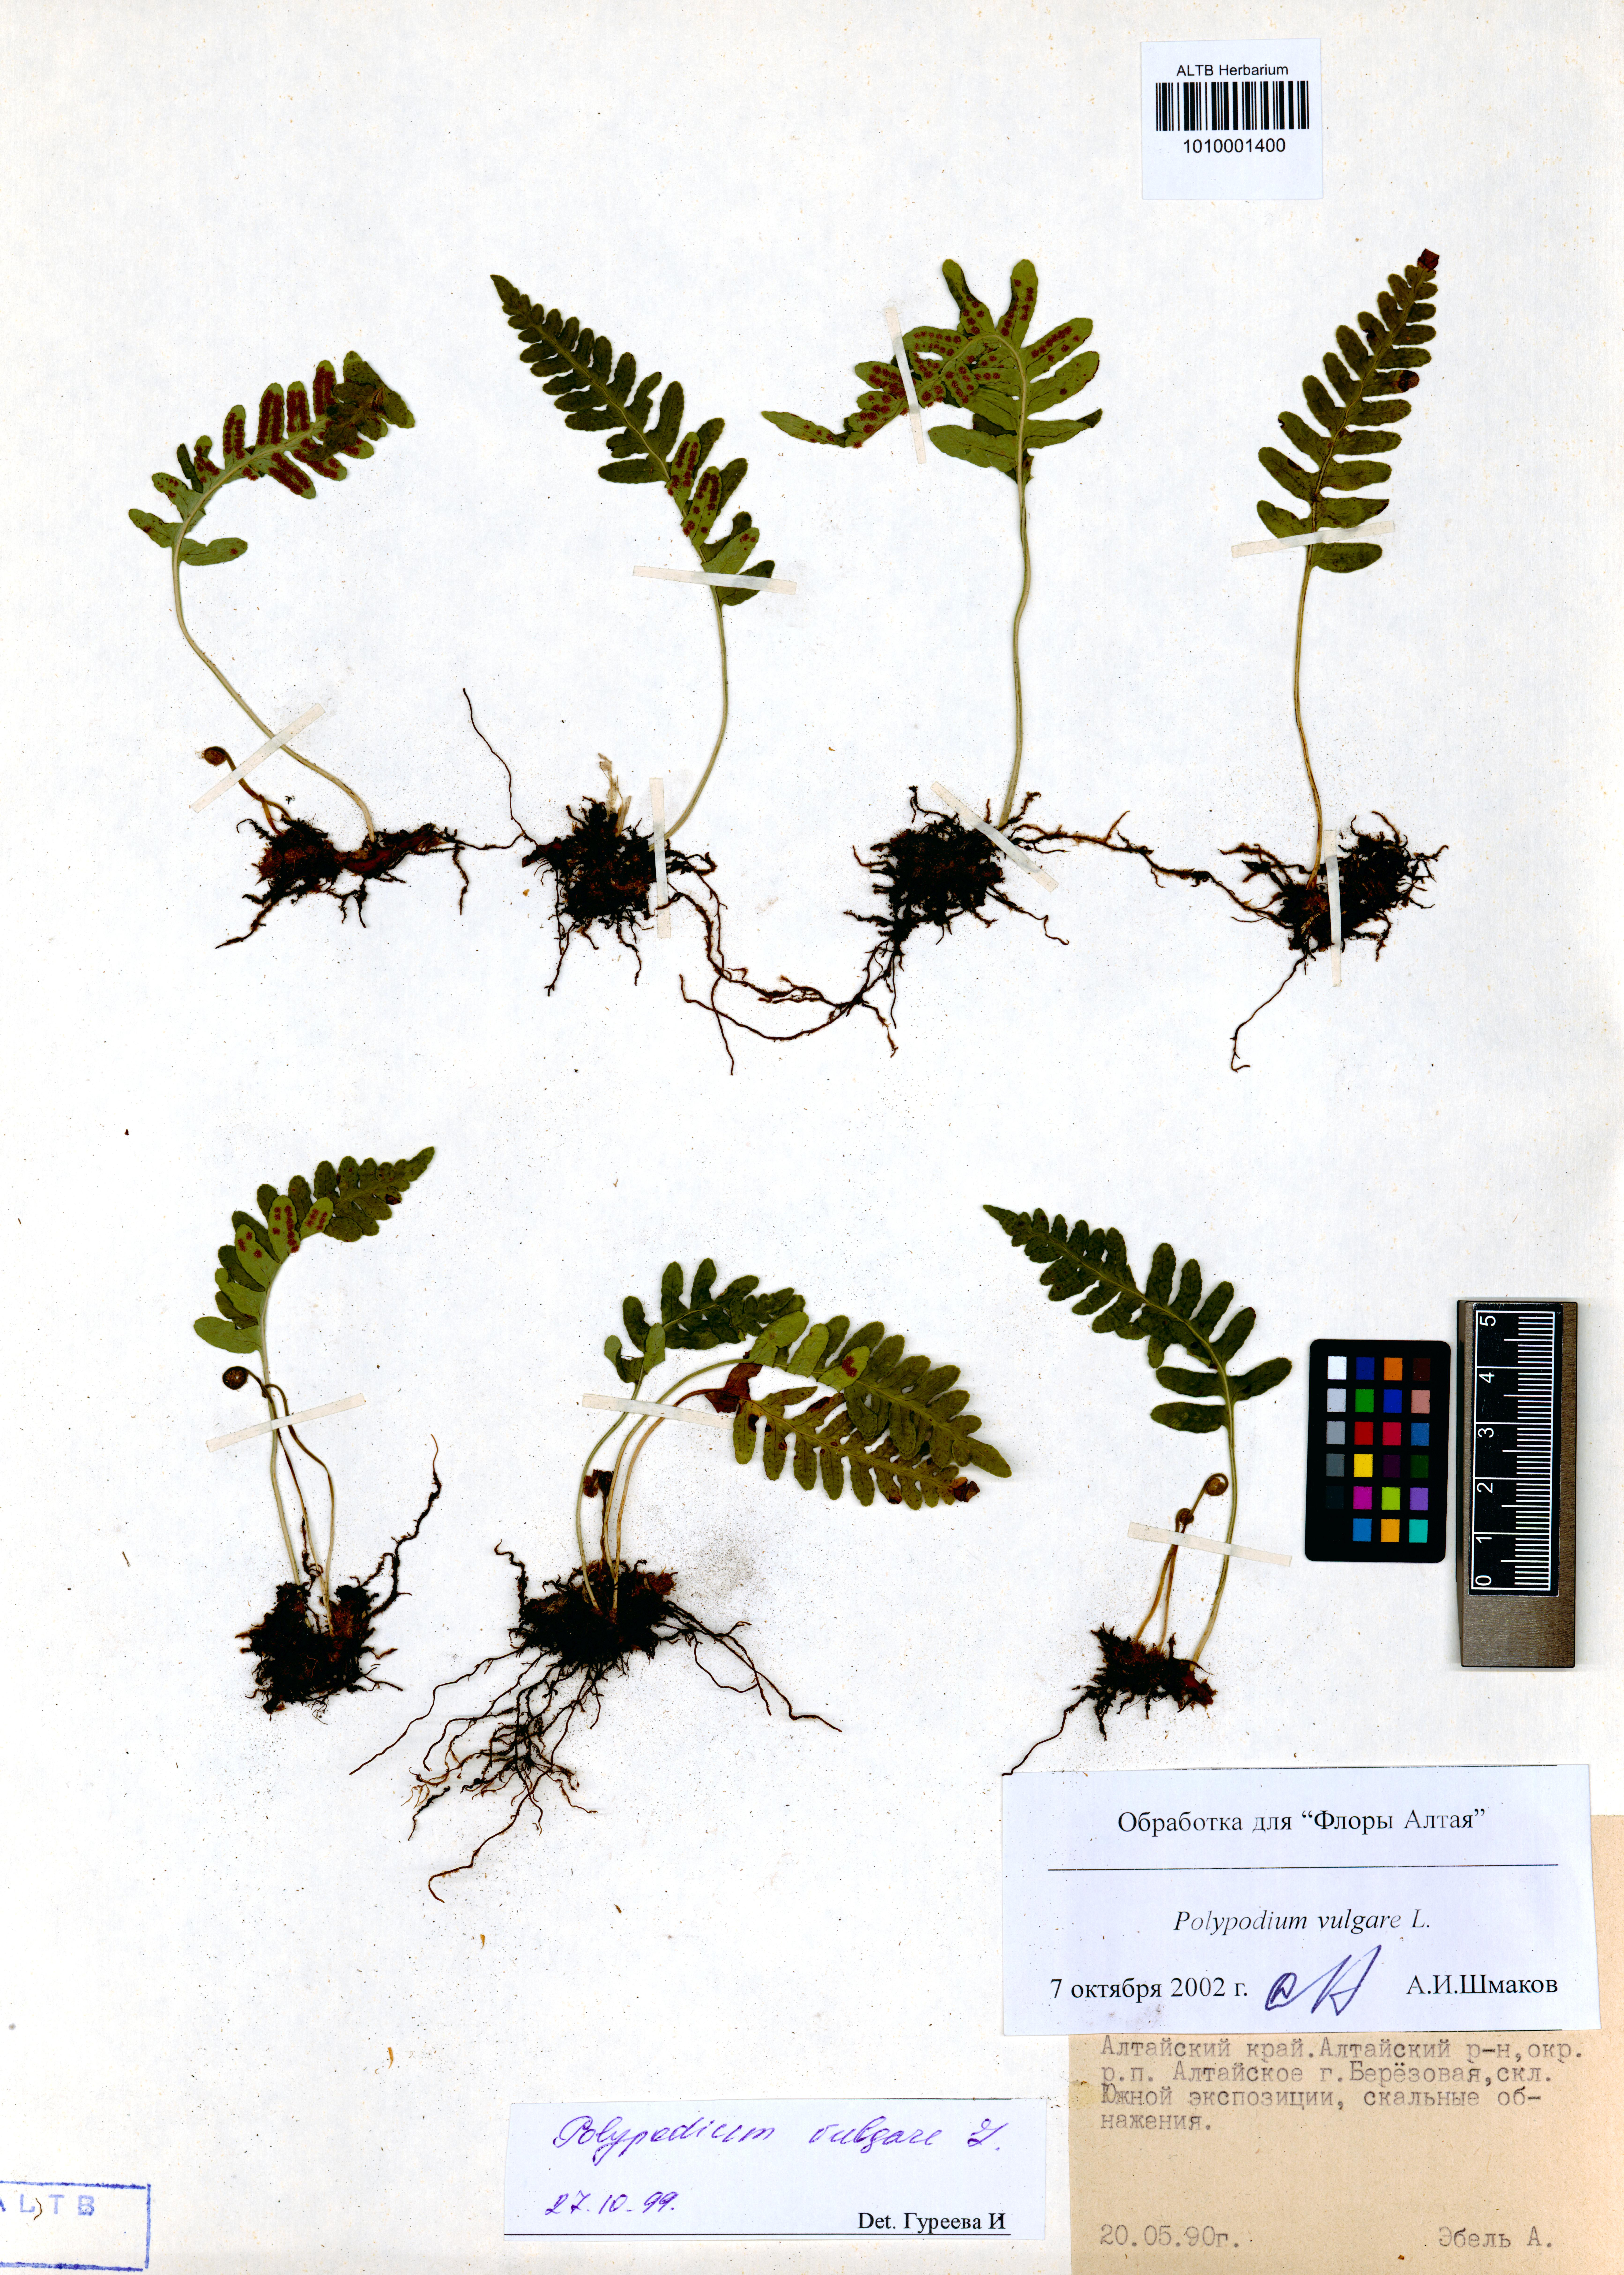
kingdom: Plantae
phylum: Tracheophyta
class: Polypodiopsida
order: Polypodiales
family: Polypodiaceae
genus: Polypodium
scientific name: Polypodium vulgare
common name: Common polypody
